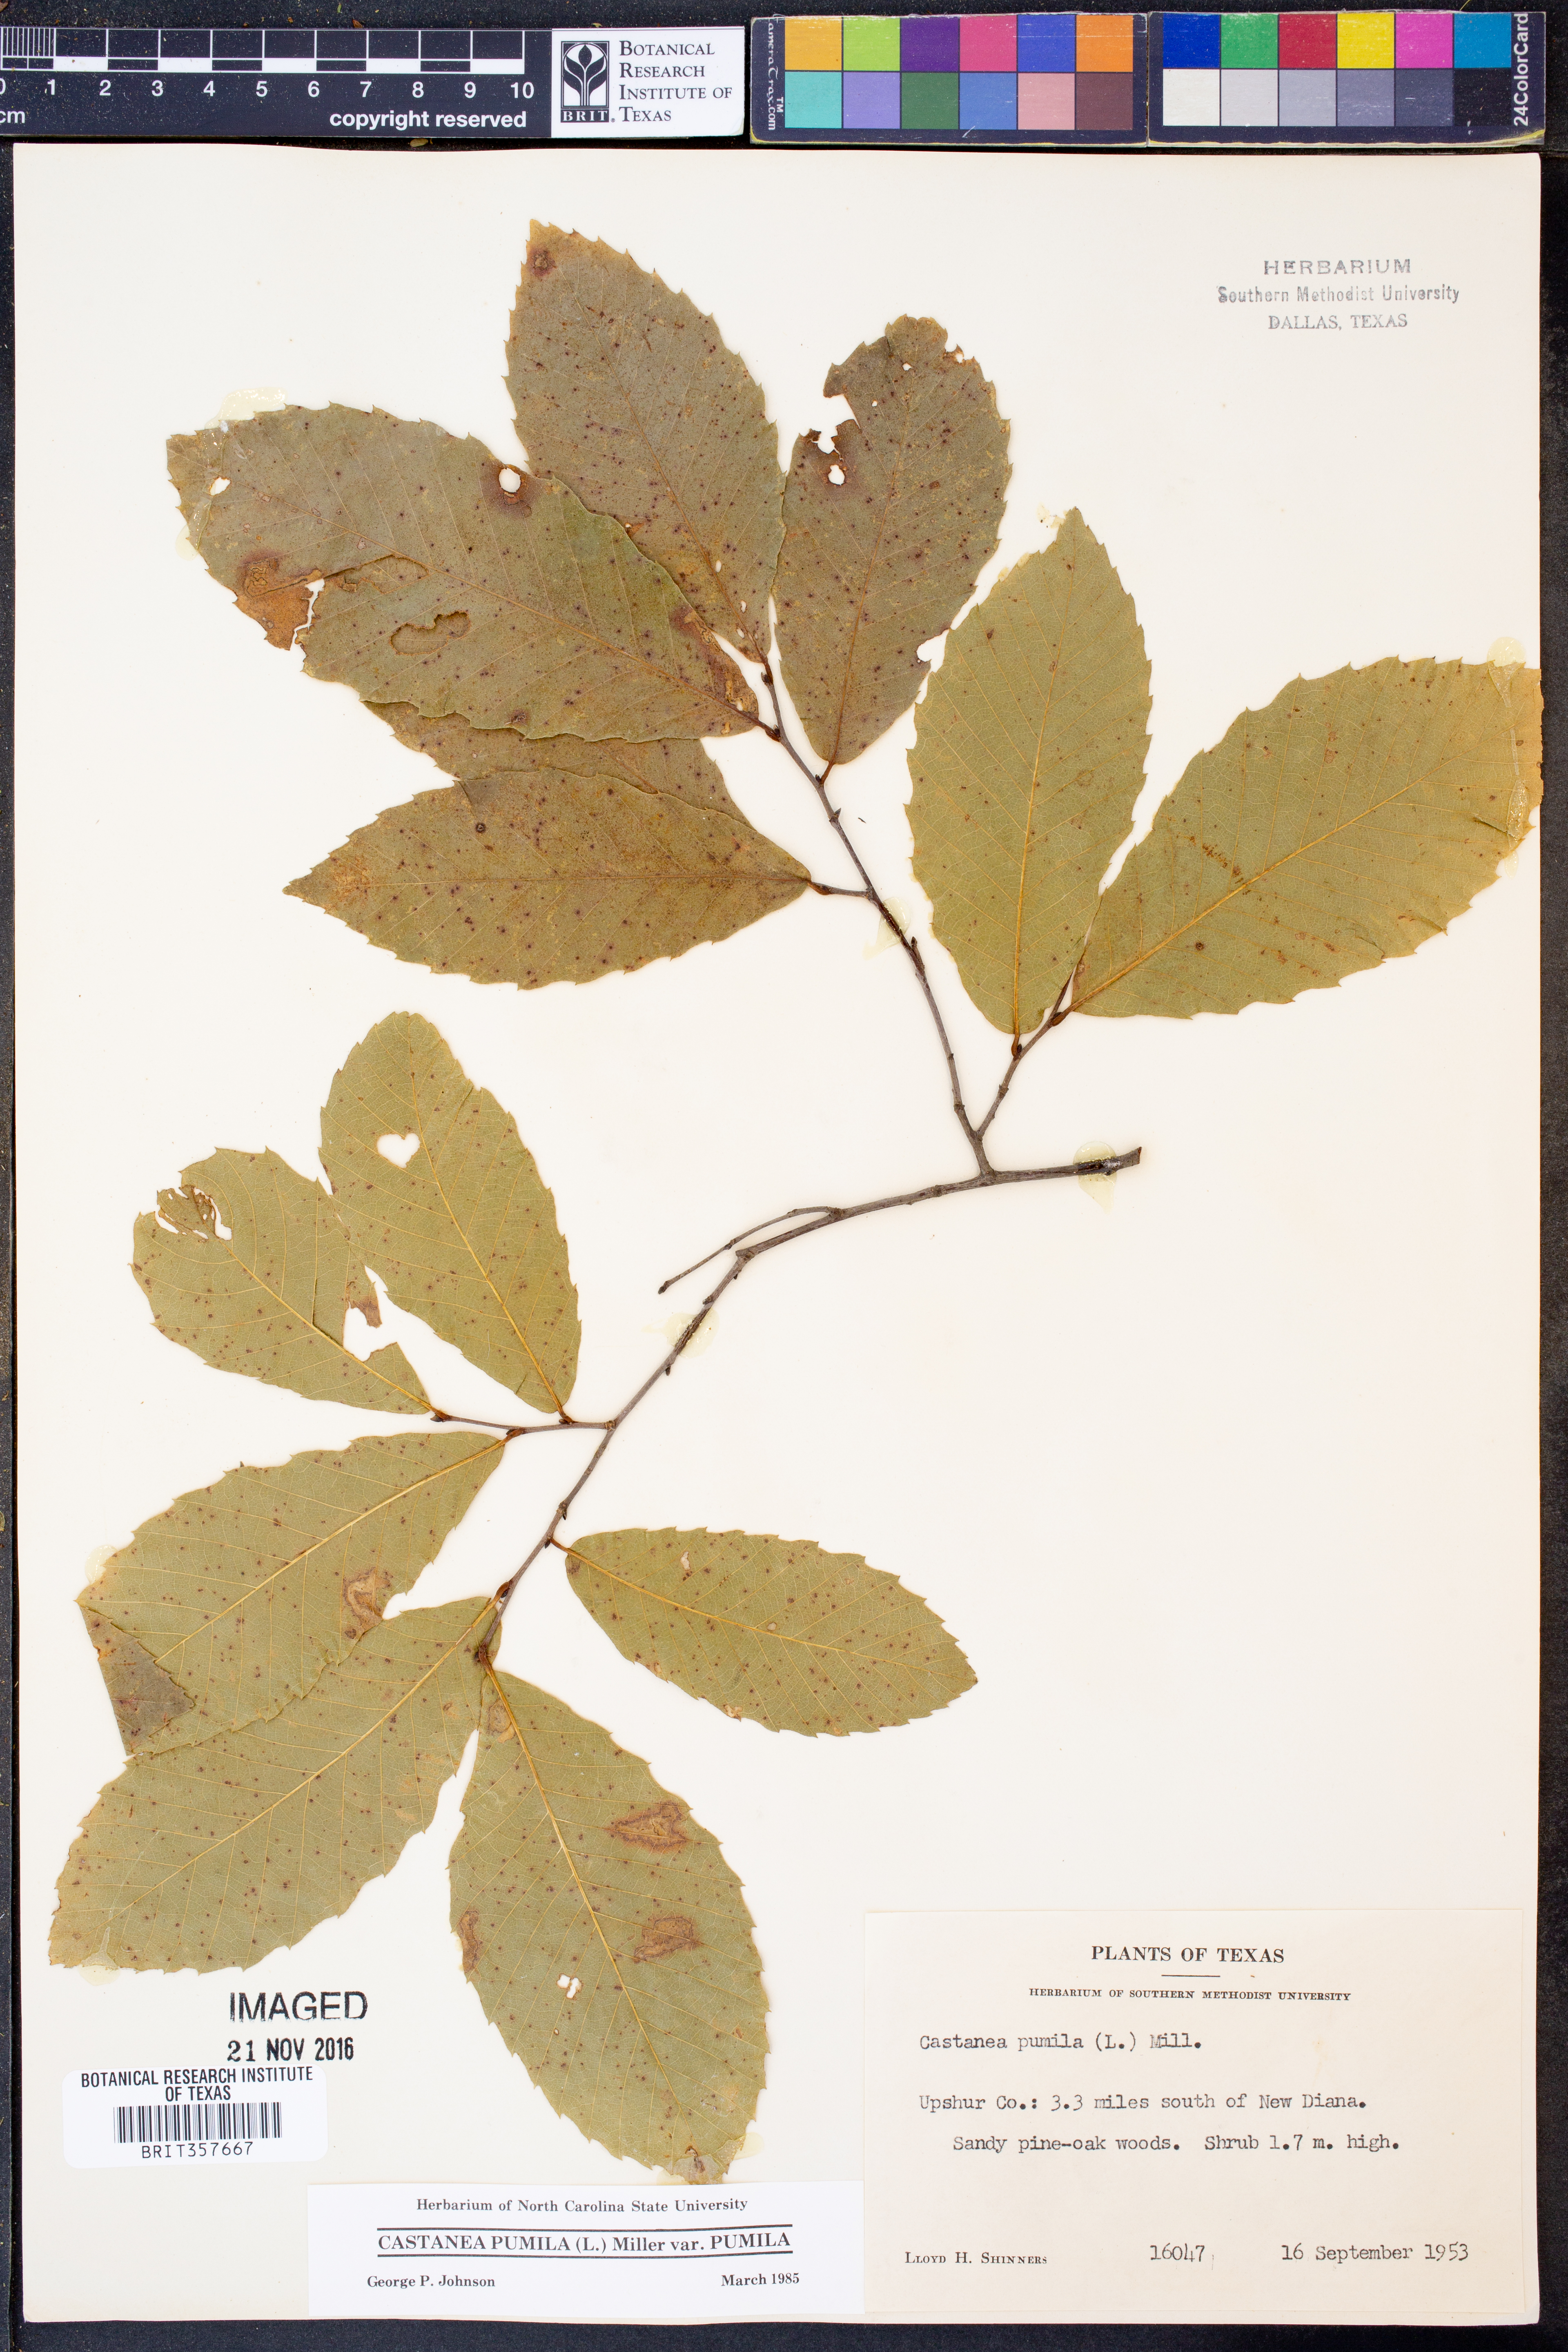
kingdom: Plantae
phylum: Tracheophyta
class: Magnoliopsida
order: Fagales
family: Fagaceae
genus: Castanea
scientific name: Castanea pumila
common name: Chinkapin
